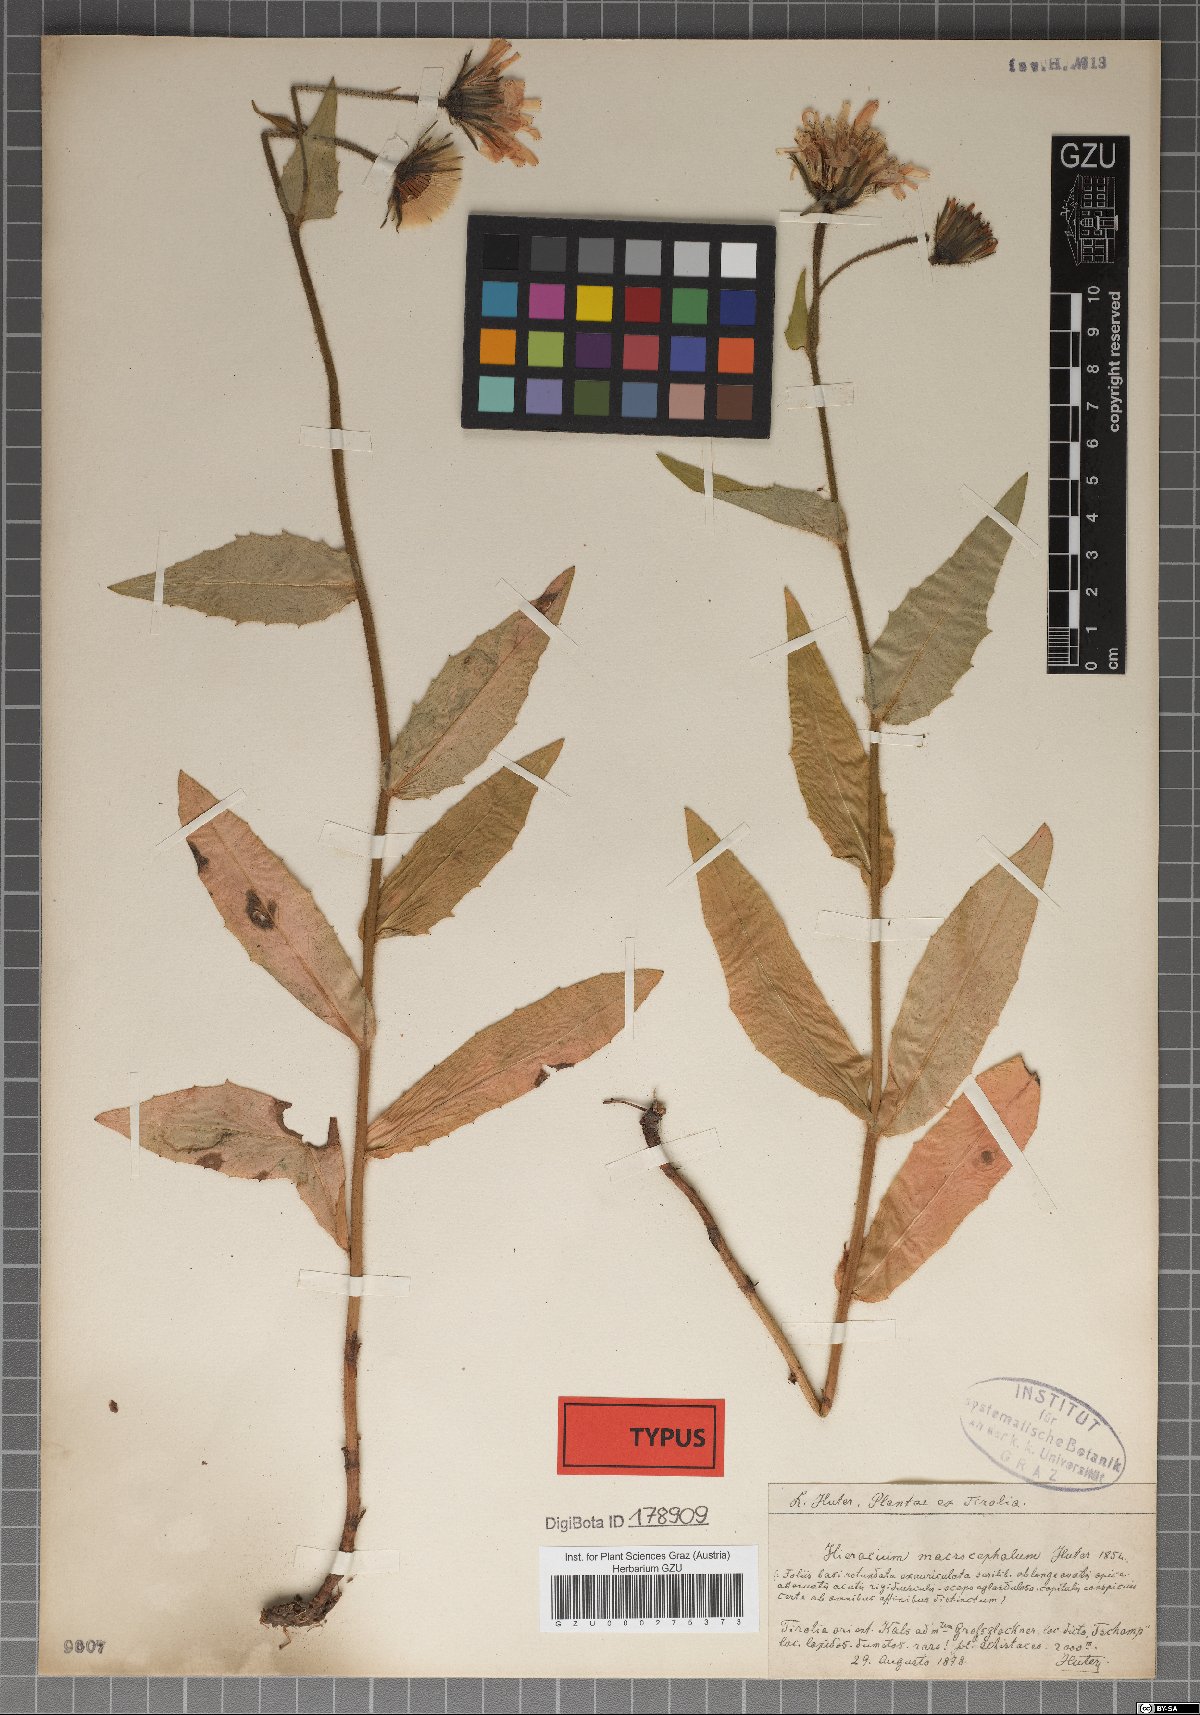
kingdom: Plantae
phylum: Tracheophyta
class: Magnoliopsida
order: Asterales
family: Asteraceae
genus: Hieracium
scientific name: Hieracium macrocephalum
